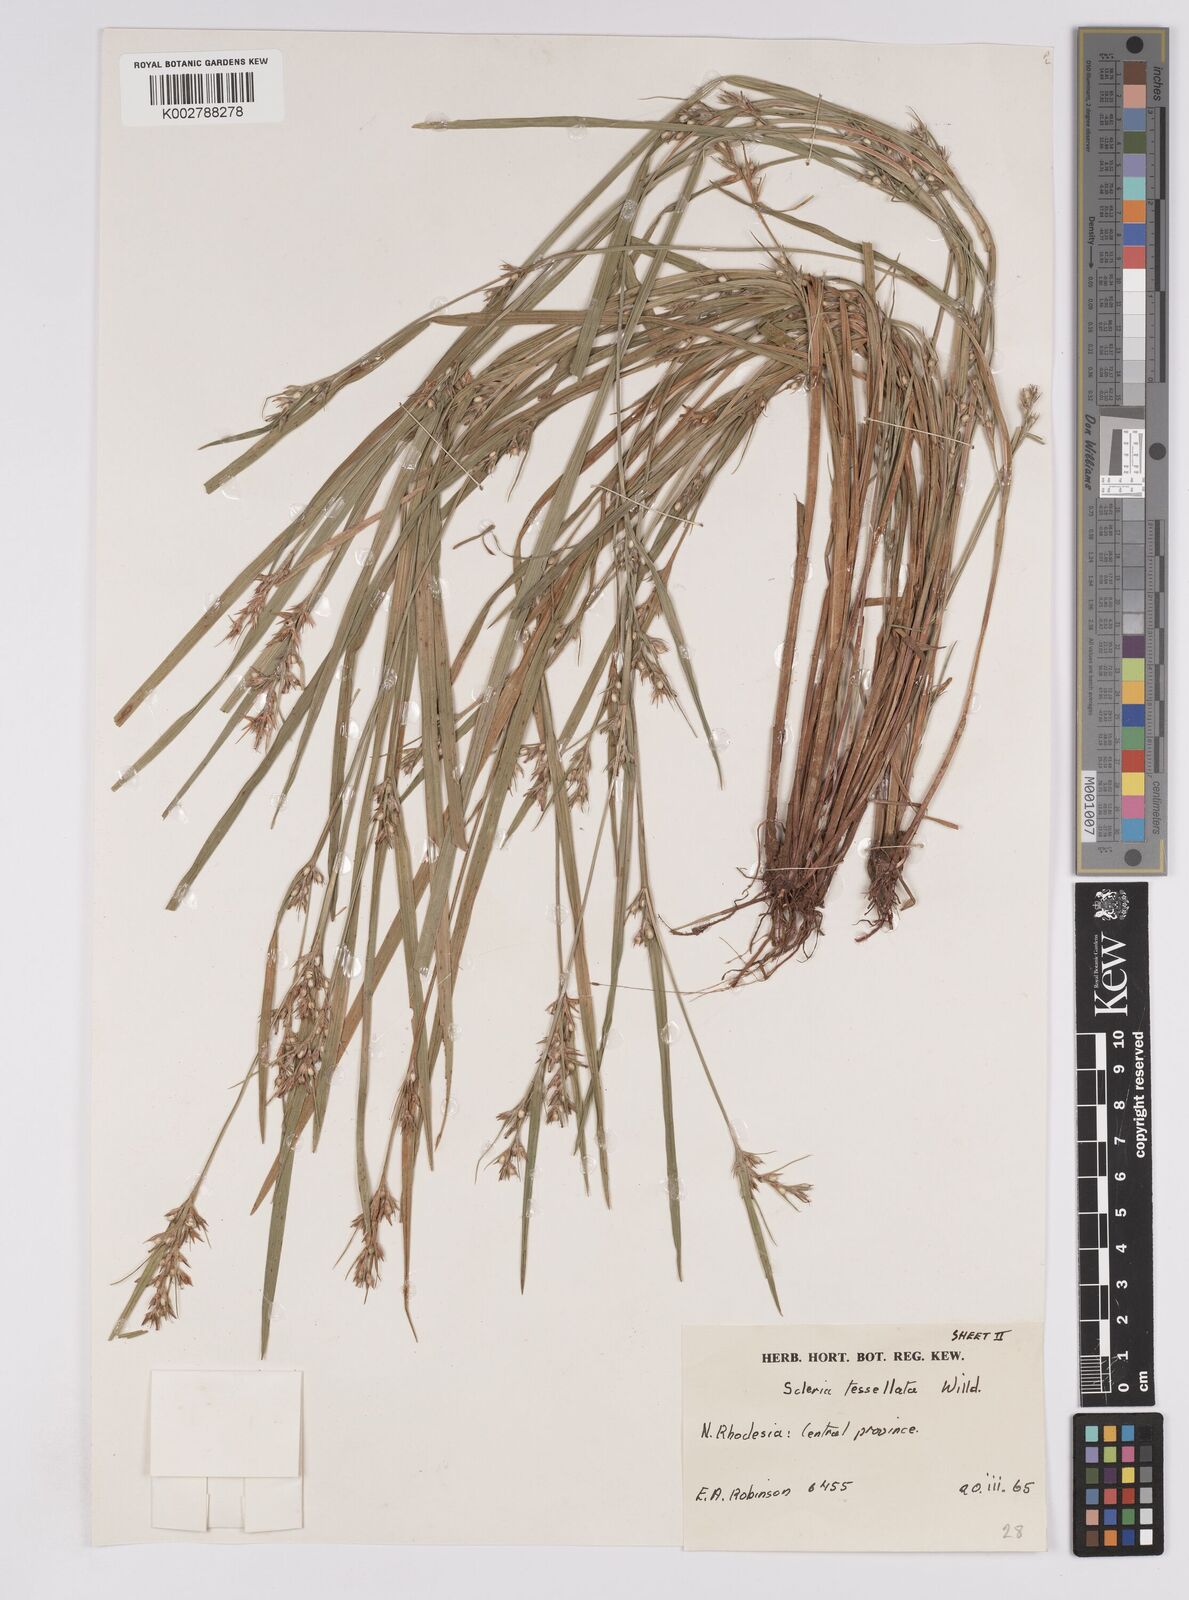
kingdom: Plantae
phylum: Tracheophyta
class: Liliopsida
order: Poales
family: Cyperaceae
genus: Scleria
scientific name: Scleria tessellata
